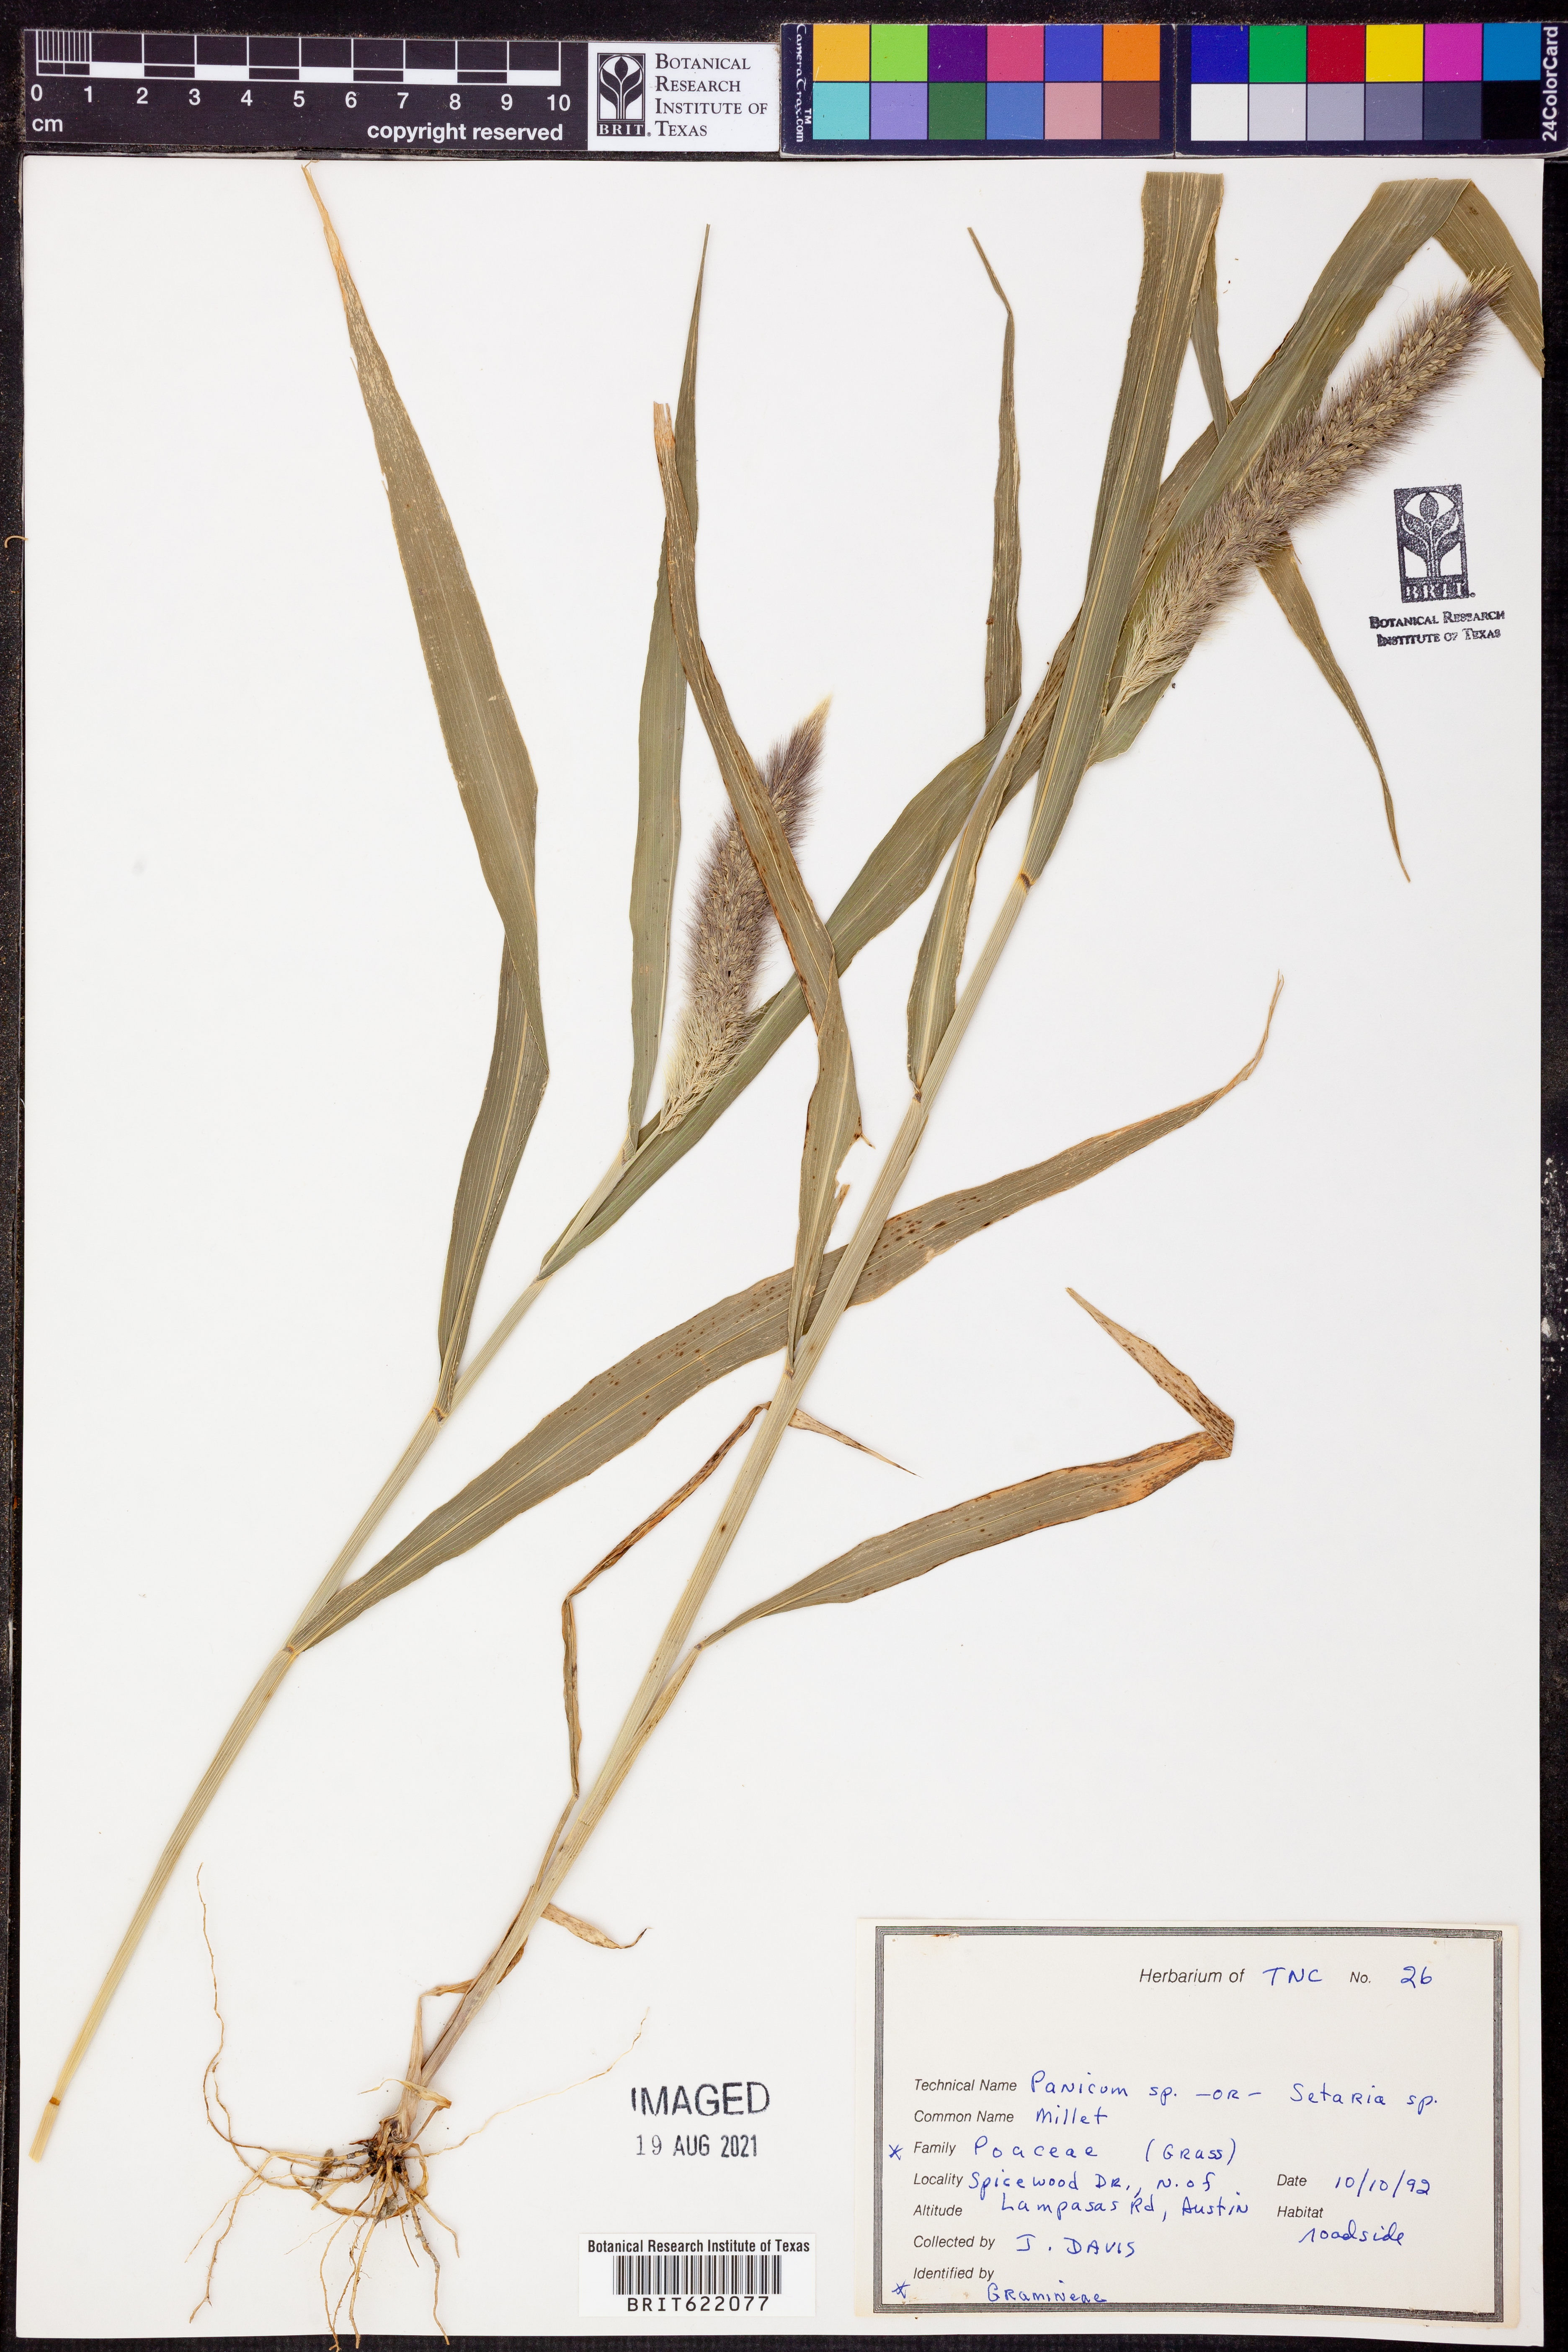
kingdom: Plantae
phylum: Tracheophyta
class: Liliopsida
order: Poales
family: Poaceae
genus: Panicum
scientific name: Panicum
